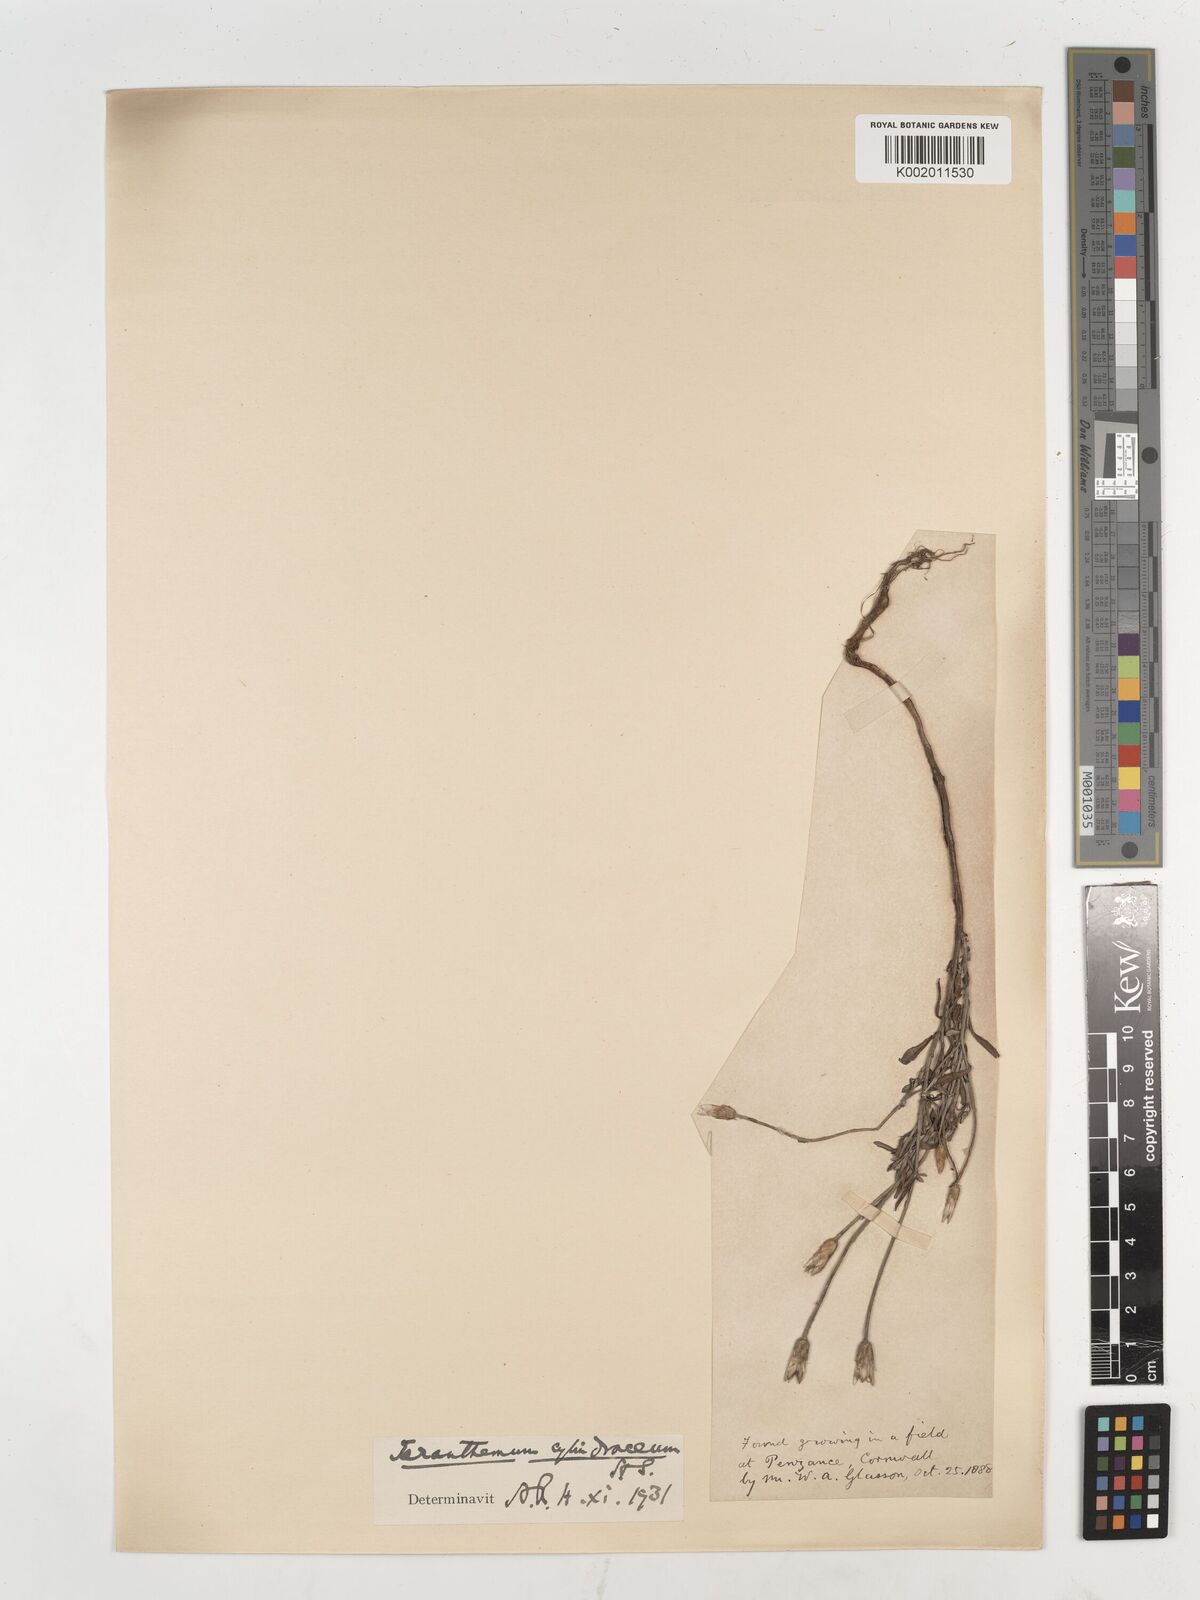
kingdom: Plantae
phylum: Tracheophyta
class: Magnoliopsida
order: Asterales
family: Asteraceae
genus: Xeranthemum
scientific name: Xeranthemum
